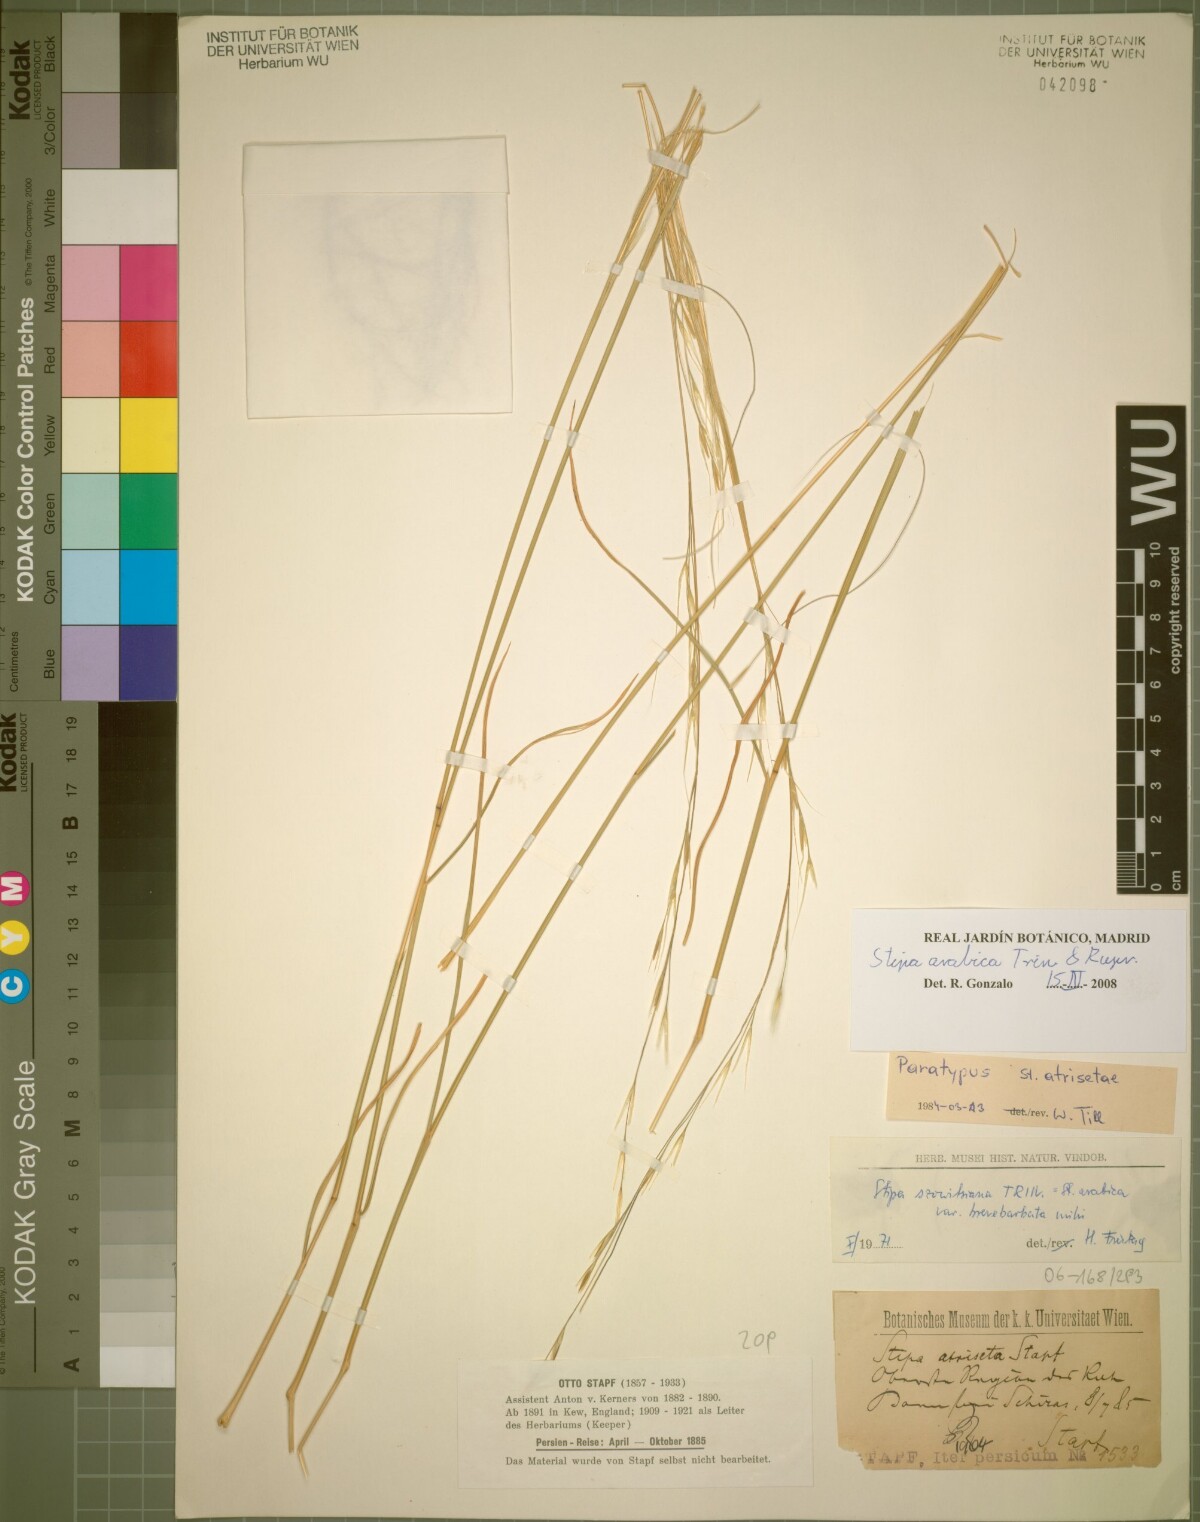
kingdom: Plantae
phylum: Tracheophyta
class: Liliopsida
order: Poales
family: Poaceae
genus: Stipa
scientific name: Stipa hohenackeriana
